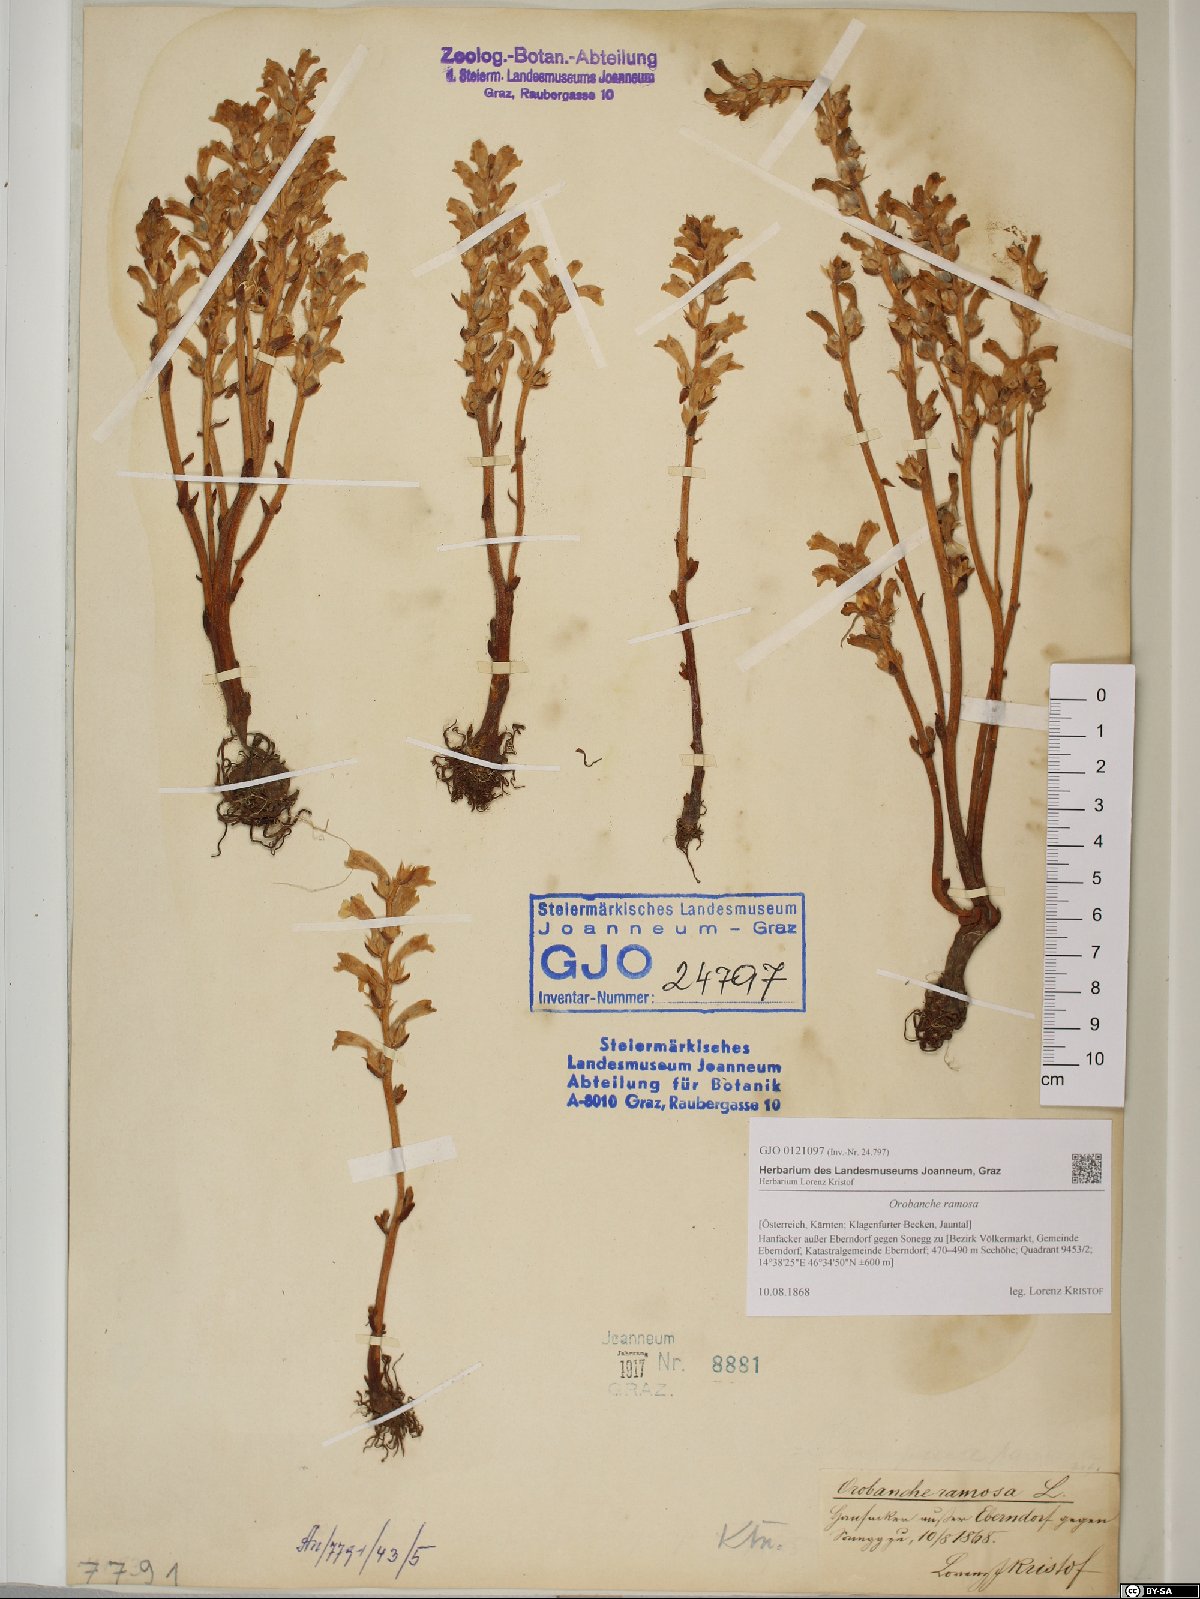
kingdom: Plantae
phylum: Tracheophyta
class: Magnoliopsida
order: Lamiales
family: Orobanchaceae
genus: Phelipanche
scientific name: Phelipanche ramosa
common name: Branched broomrape
